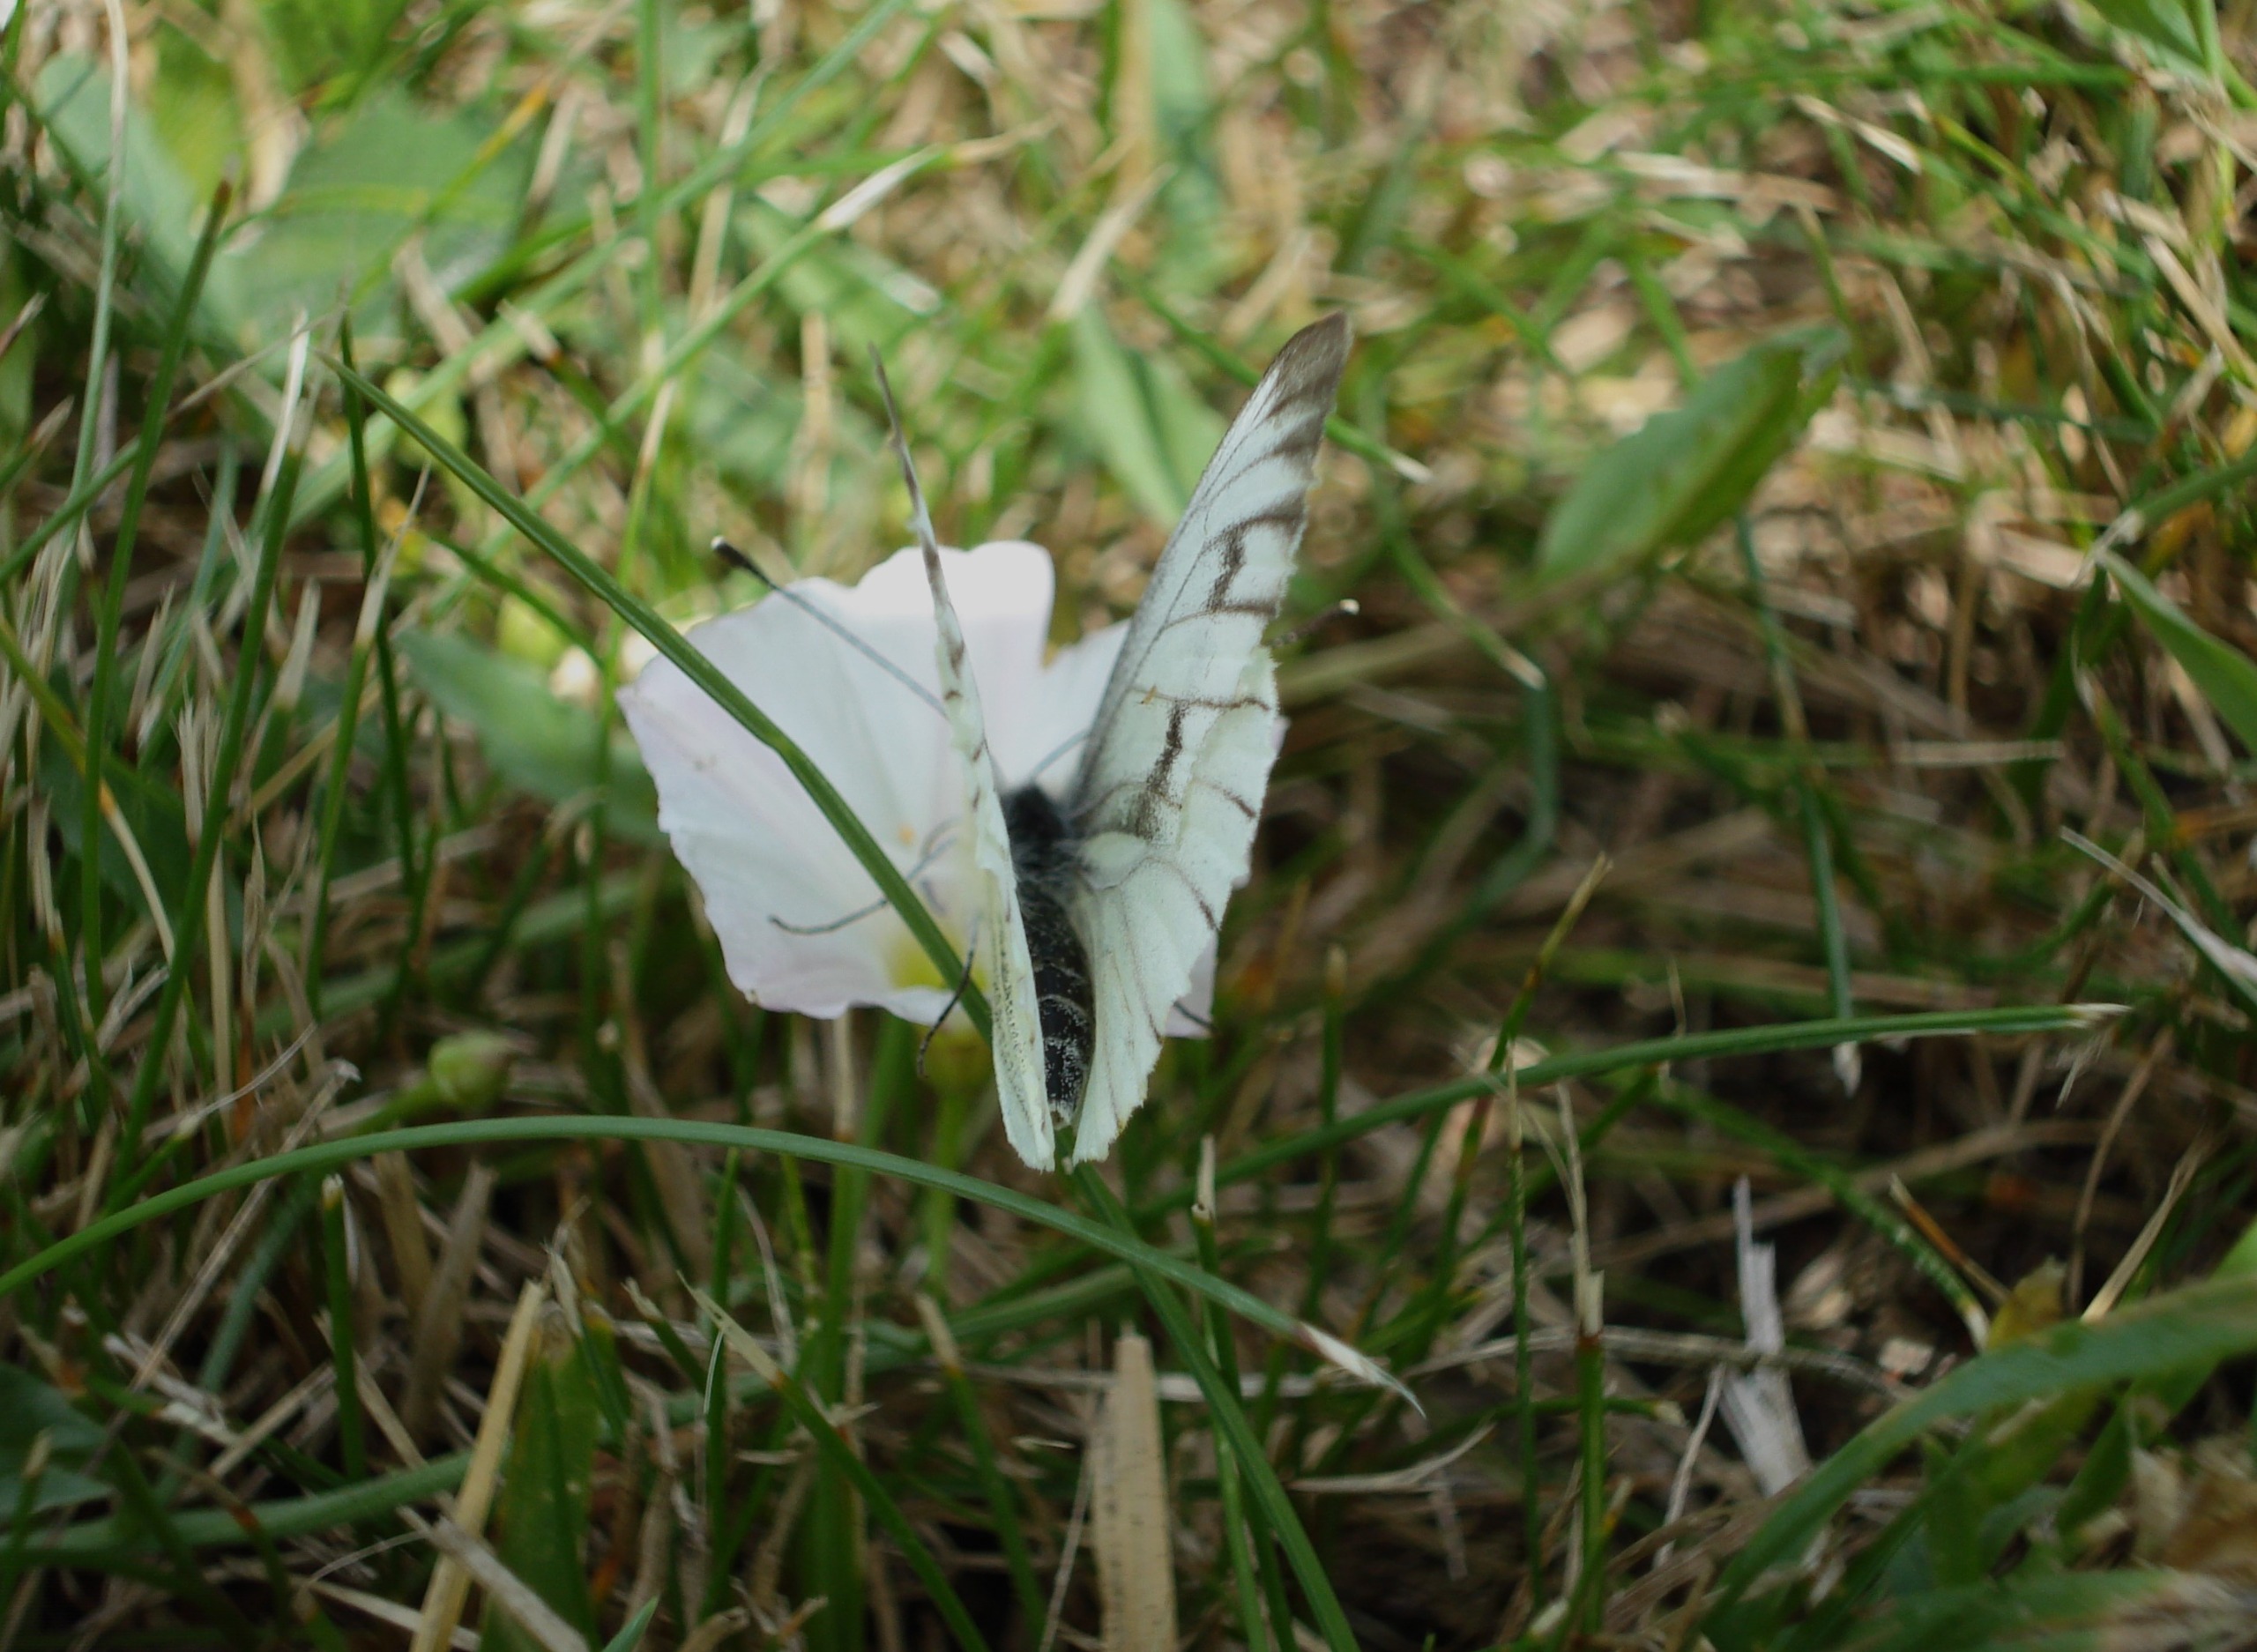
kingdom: Animalia
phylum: Arthropoda
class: Insecta
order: Lepidoptera
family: Pieridae
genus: Pieris
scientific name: Pieris napi
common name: Grønåret kålsommerfugl
